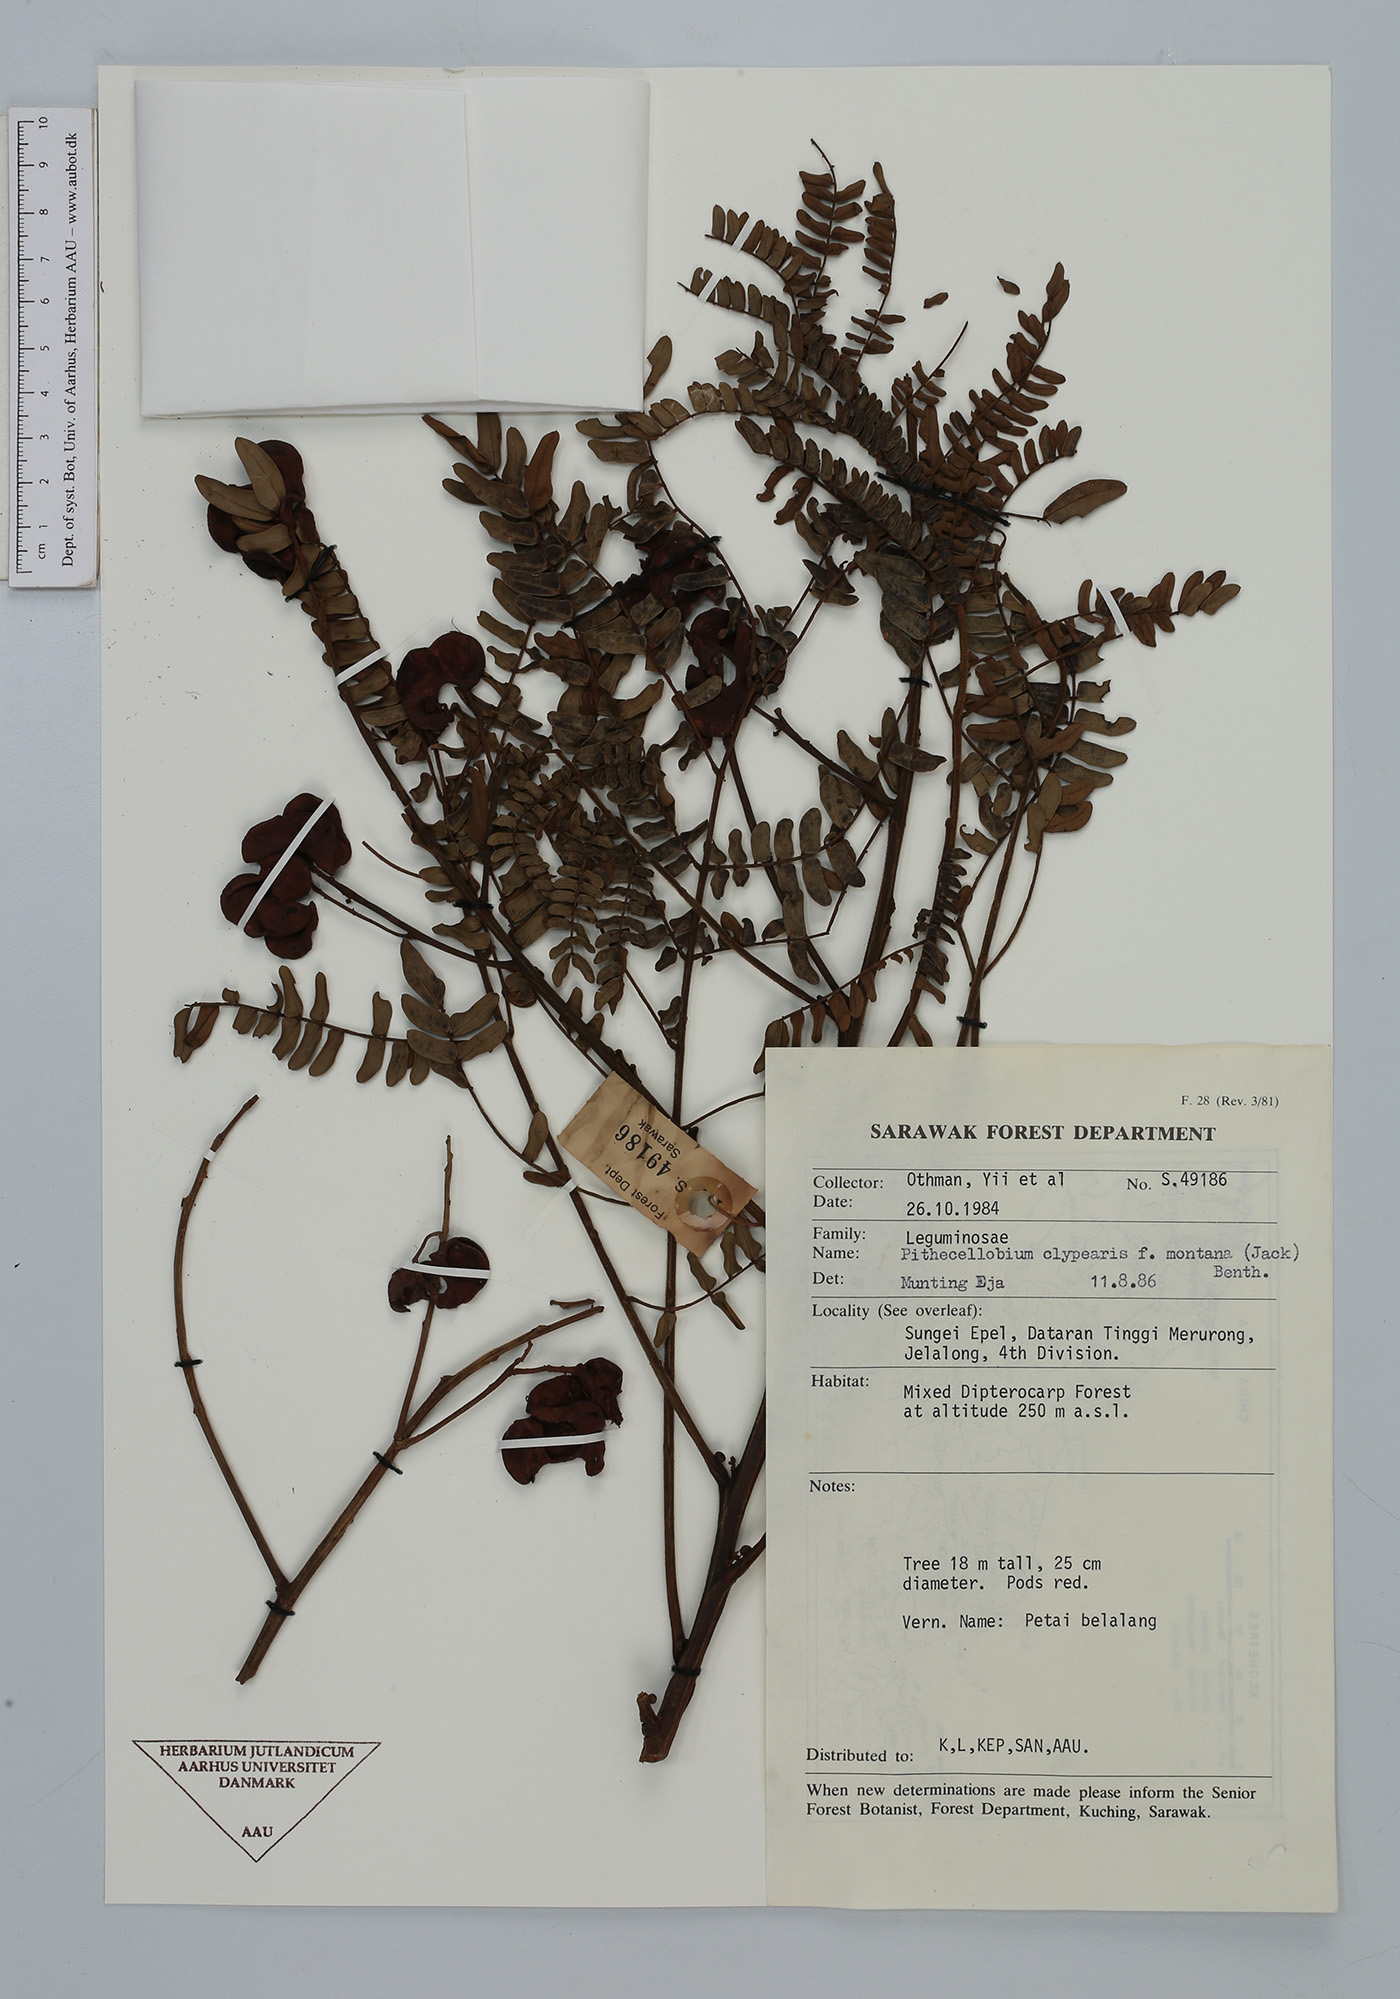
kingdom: Plantae
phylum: Tracheophyta
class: Magnoliopsida
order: Fabales
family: Fabaceae
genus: Archidendron
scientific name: Archidendron clypearia
